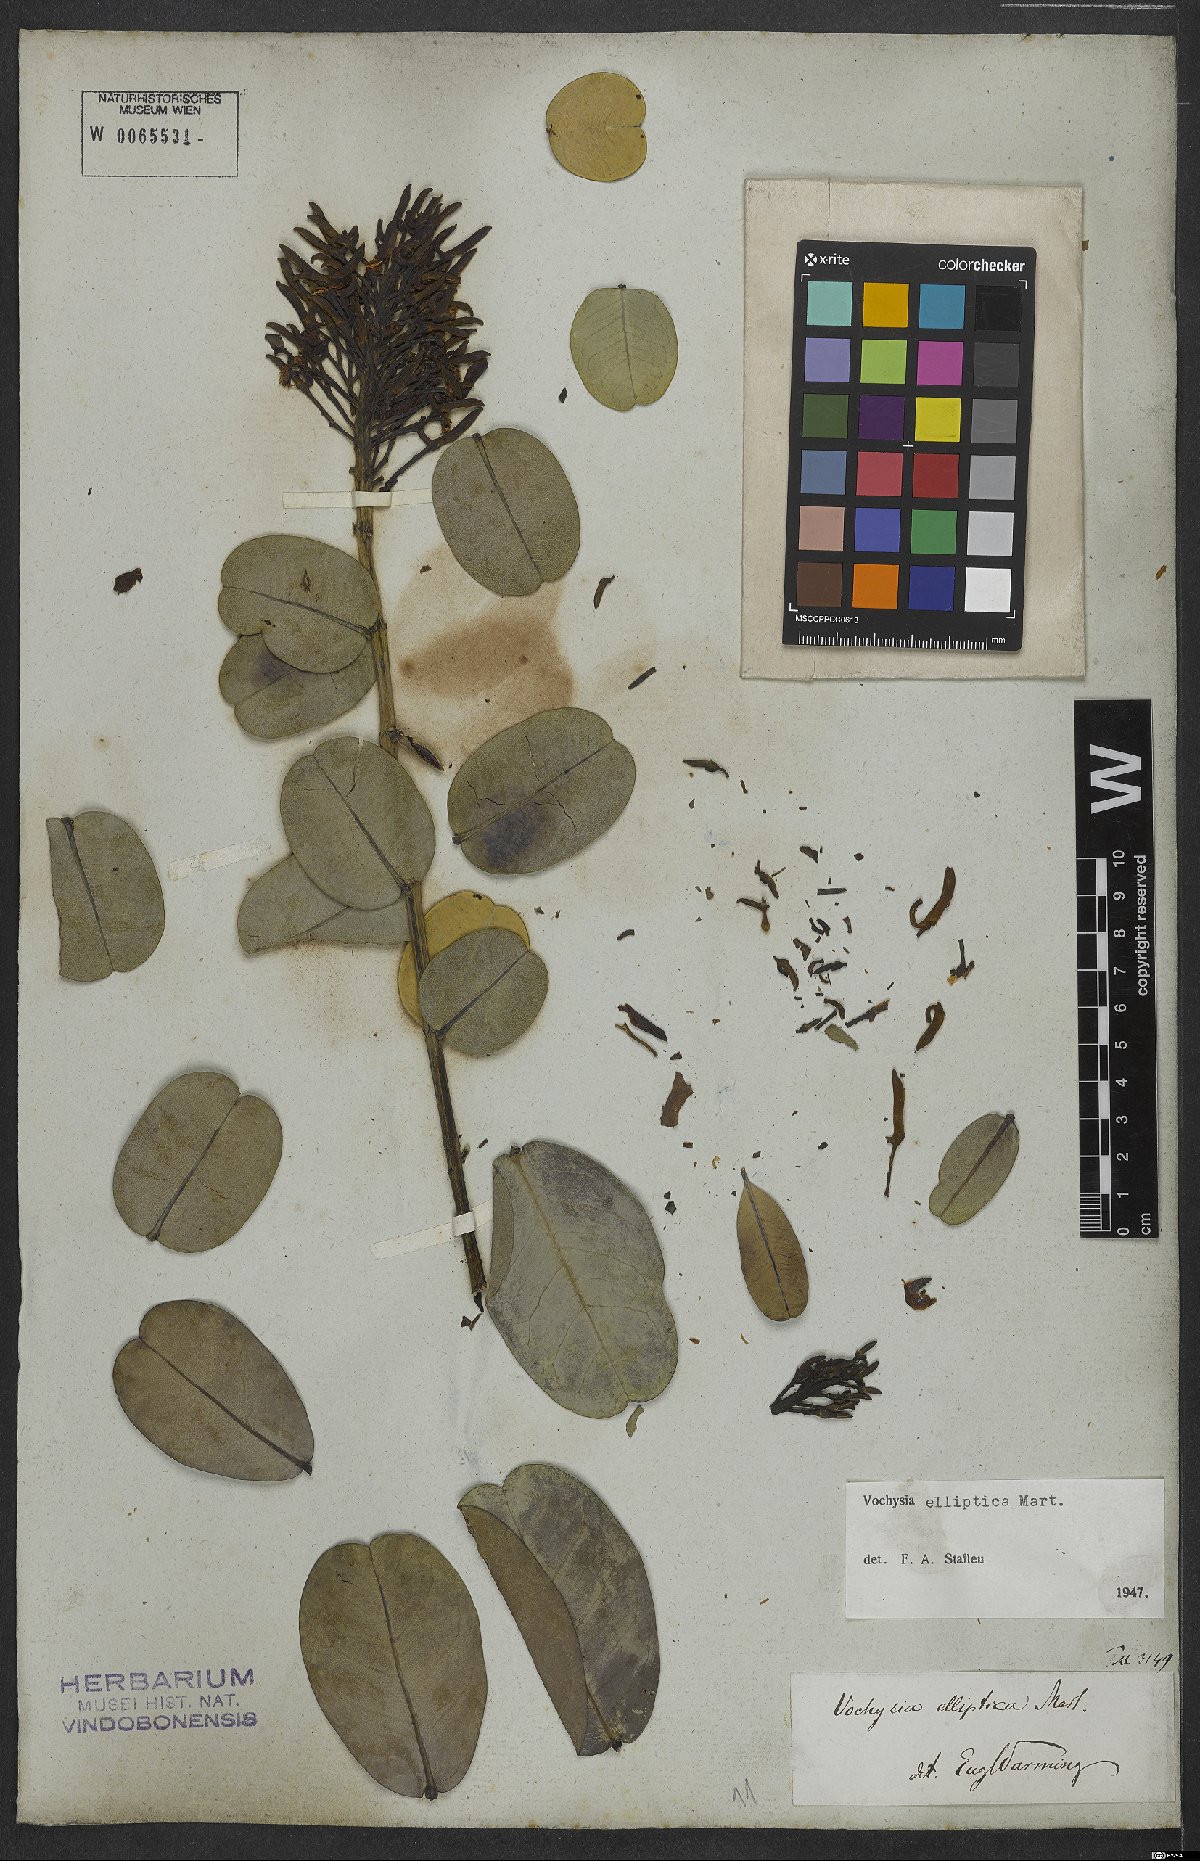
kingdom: Plantae
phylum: Tracheophyta
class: Magnoliopsida
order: Myrtales
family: Vochysiaceae
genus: Vochysia
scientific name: Vochysia elliptica
